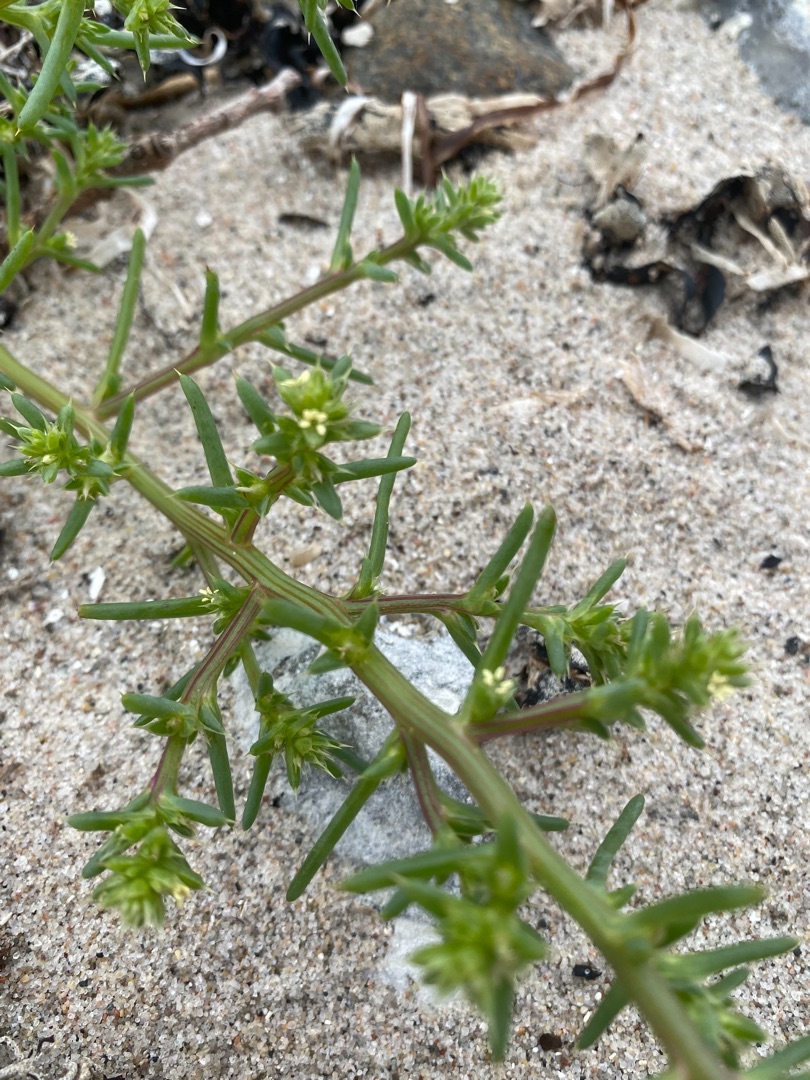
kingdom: Plantae
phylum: Tracheophyta
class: Magnoliopsida
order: Caryophyllales
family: Amaranthaceae
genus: Salsola
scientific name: Salsola kali
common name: Sodaurt
